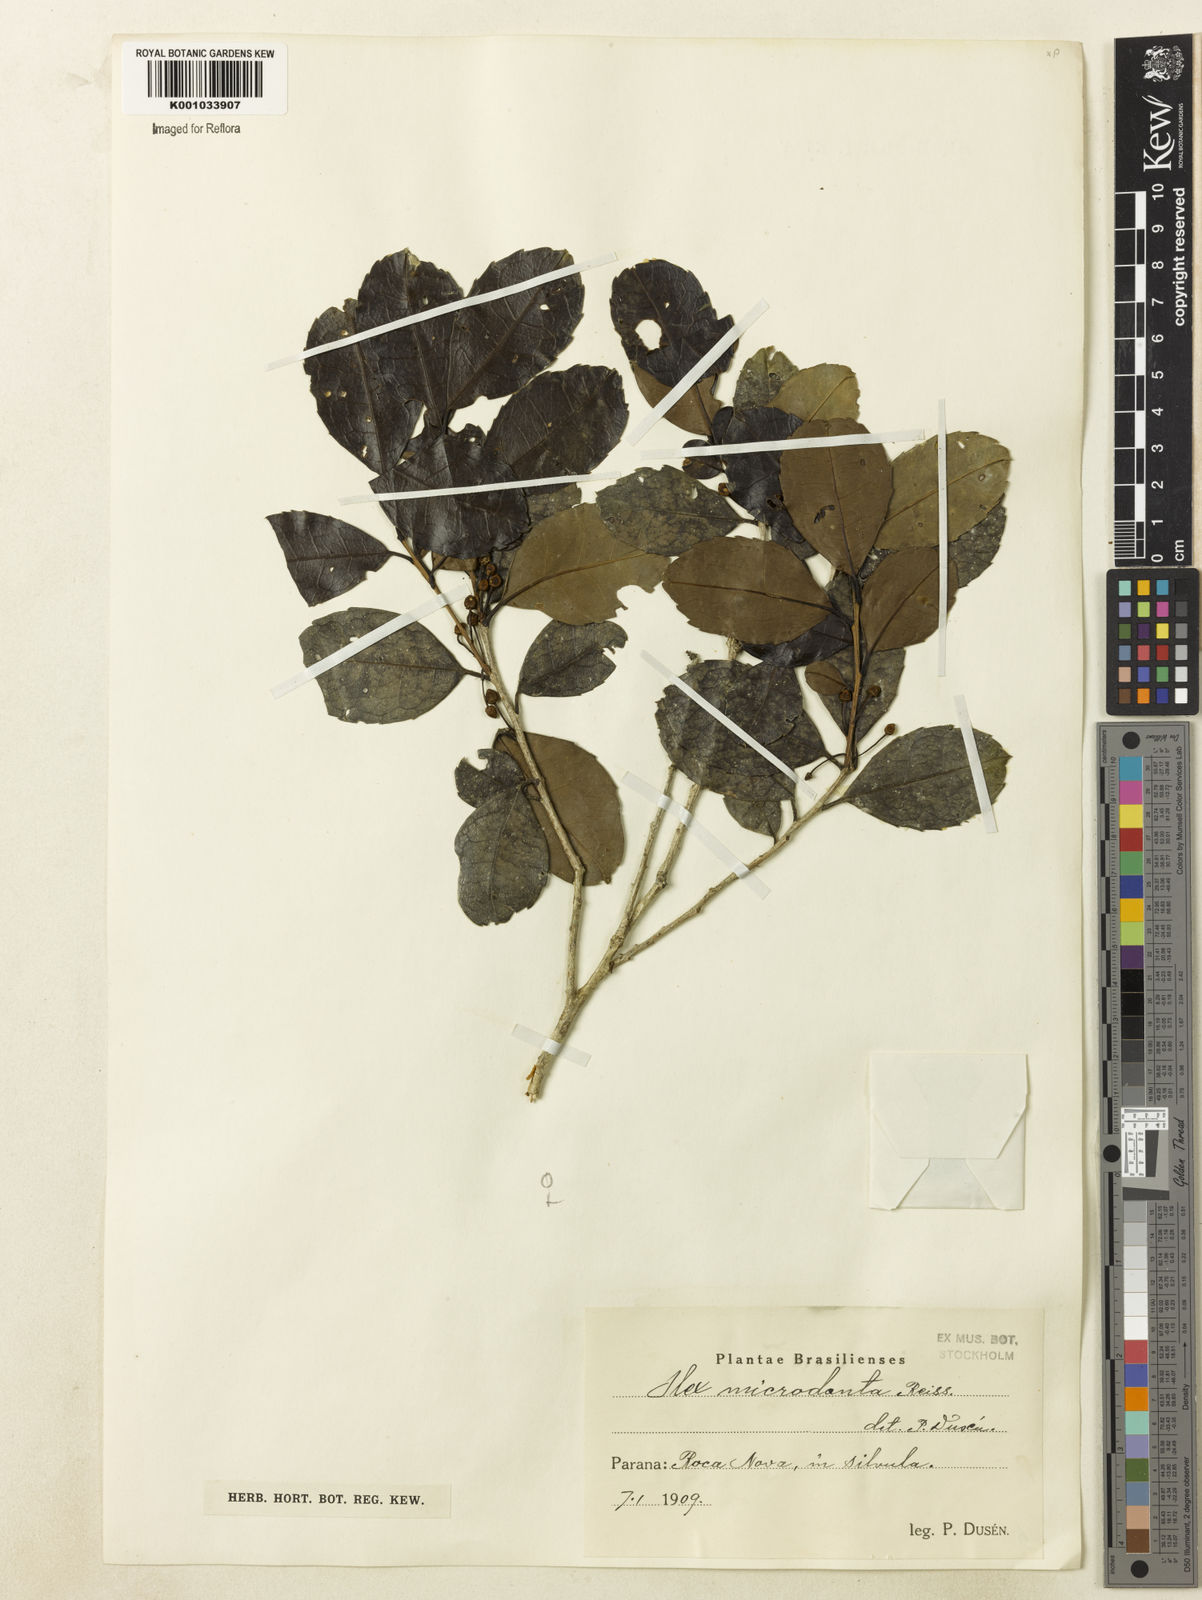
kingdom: Plantae
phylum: Tracheophyta
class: Magnoliopsida
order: Aquifoliales
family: Aquifoliaceae
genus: Ilex
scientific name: Ilex microdonta
